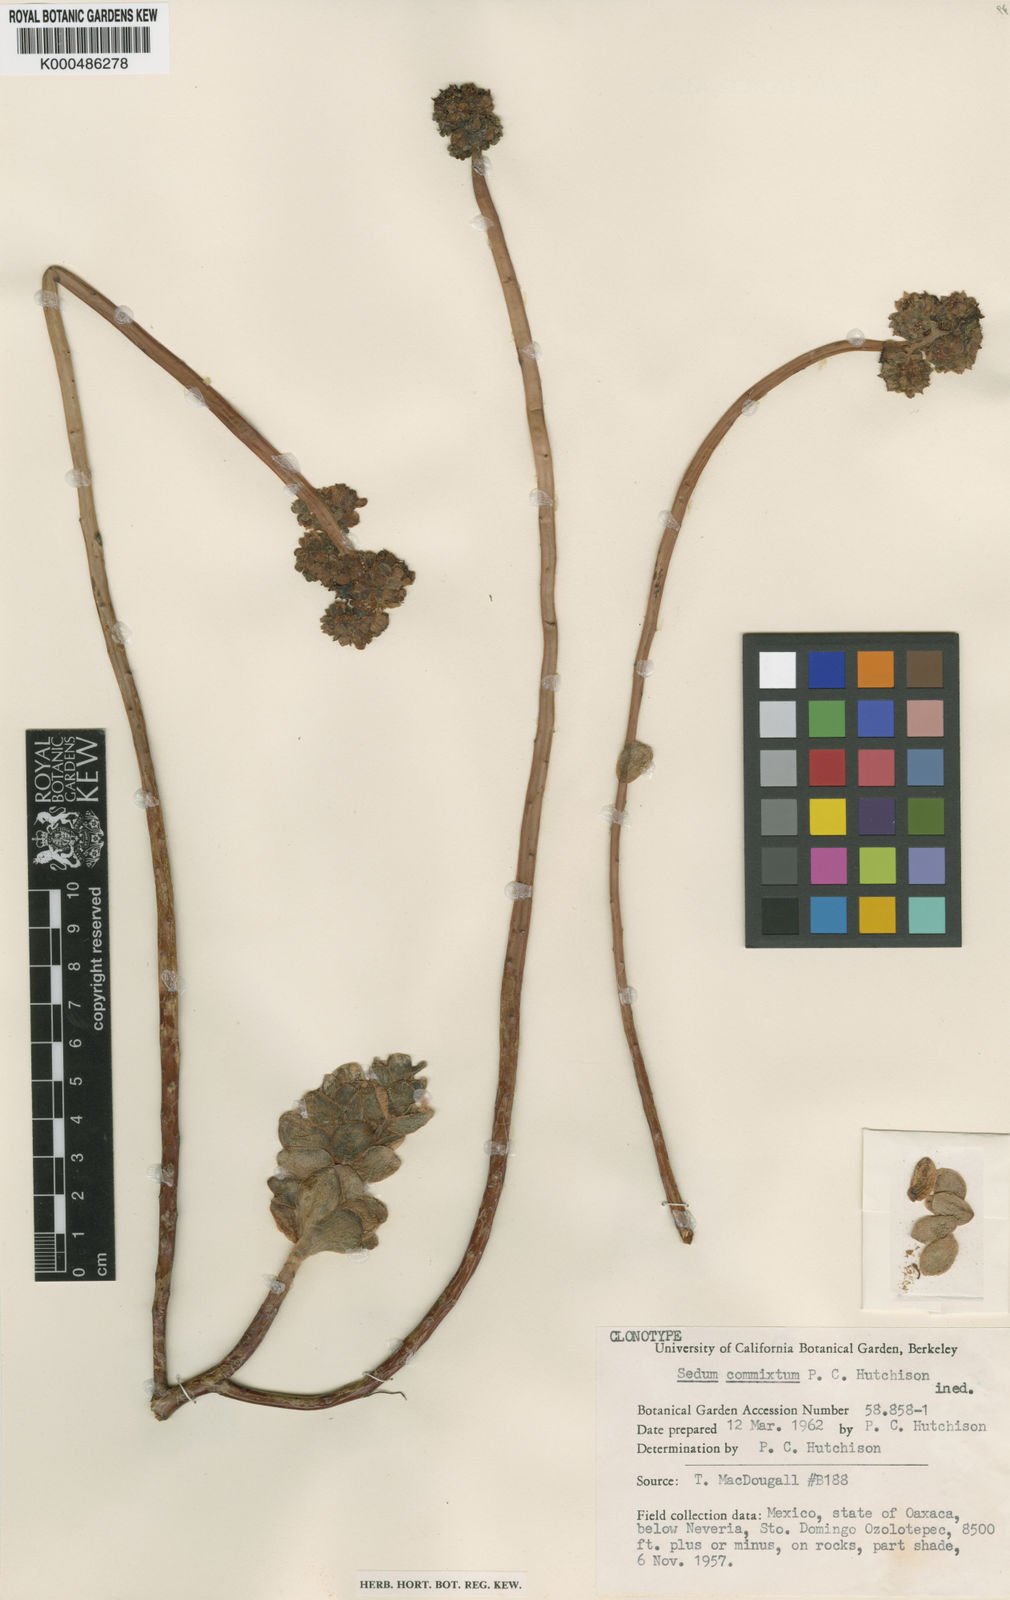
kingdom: Plantae
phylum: Tracheophyta
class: Magnoliopsida
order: Saxifragales
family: Crassulaceae
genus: Sedum
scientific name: Sedum commixtum
